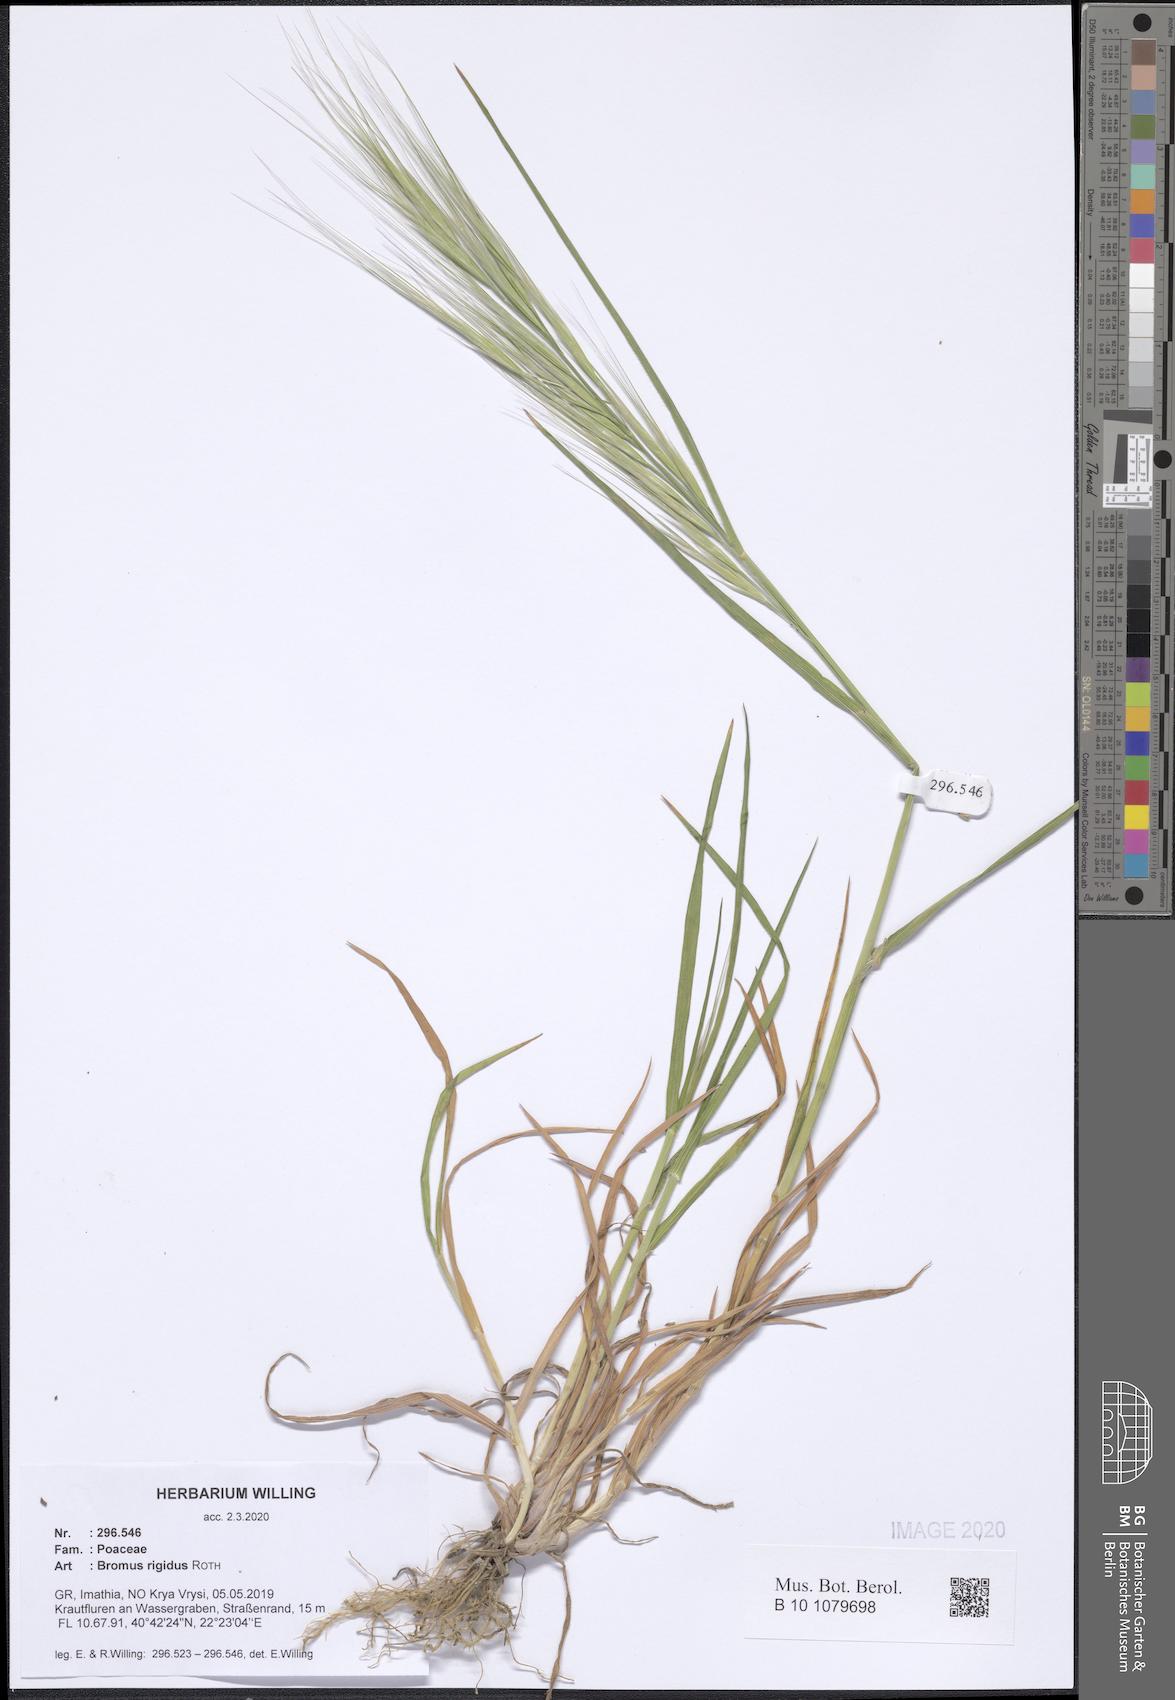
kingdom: Plantae
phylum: Tracheophyta
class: Liliopsida
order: Poales
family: Poaceae
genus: Bromus
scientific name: Bromus rigidus
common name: Ripgut brome
